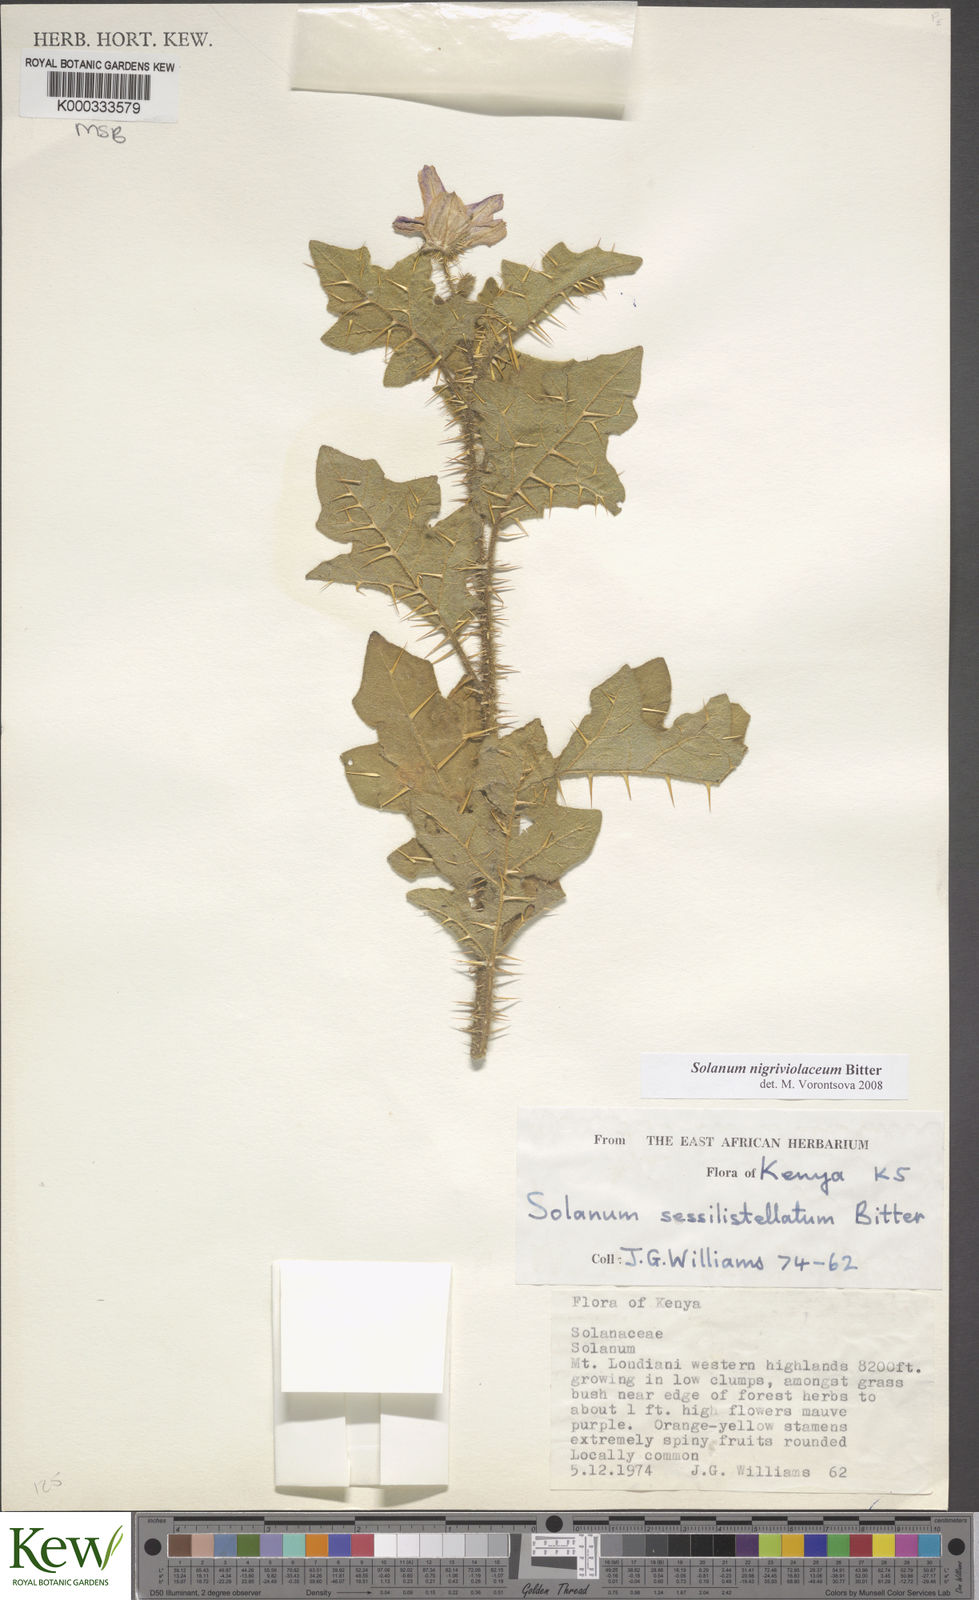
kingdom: Plantae
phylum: Tracheophyta
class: Magnoliopsida
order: Solanales
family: Solanaceae
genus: Solanum
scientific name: Solanum nigriviolaceum
